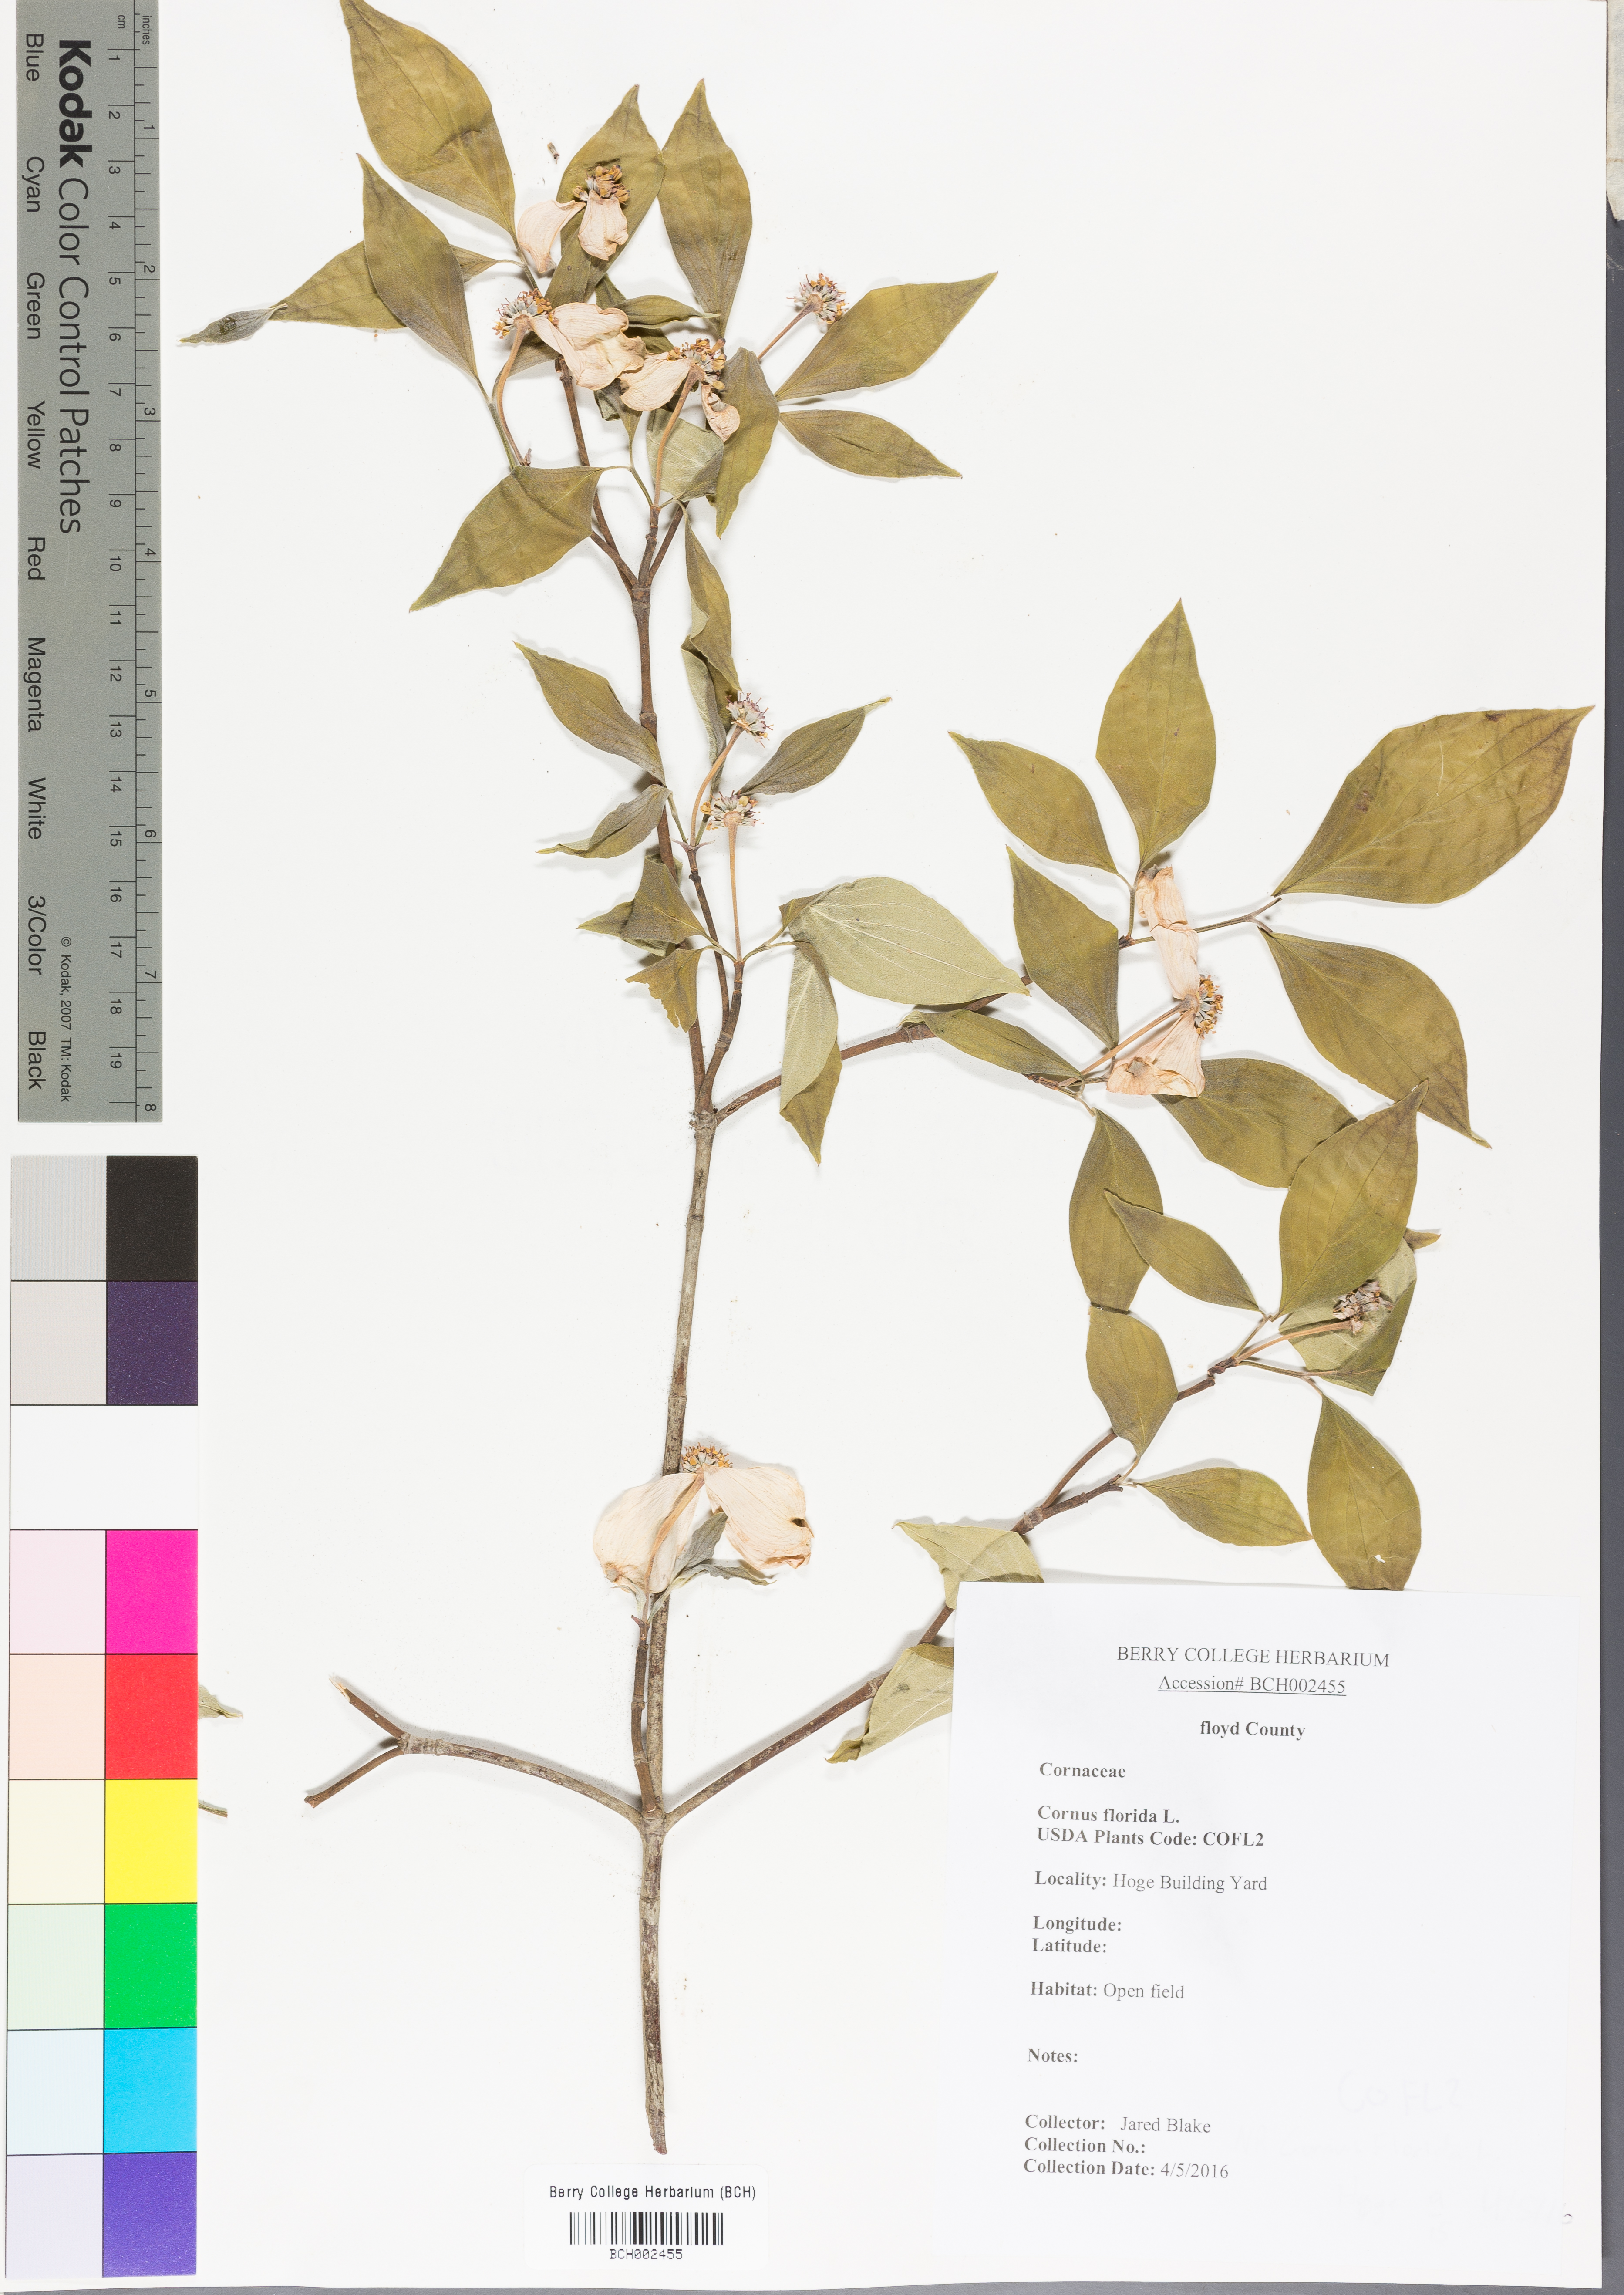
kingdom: Plantae
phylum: Tracheophyta
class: Magnoliopsida
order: Cornales
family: Cornaceae
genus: Cornus
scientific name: Cornus florida
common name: Flowering dogwood
